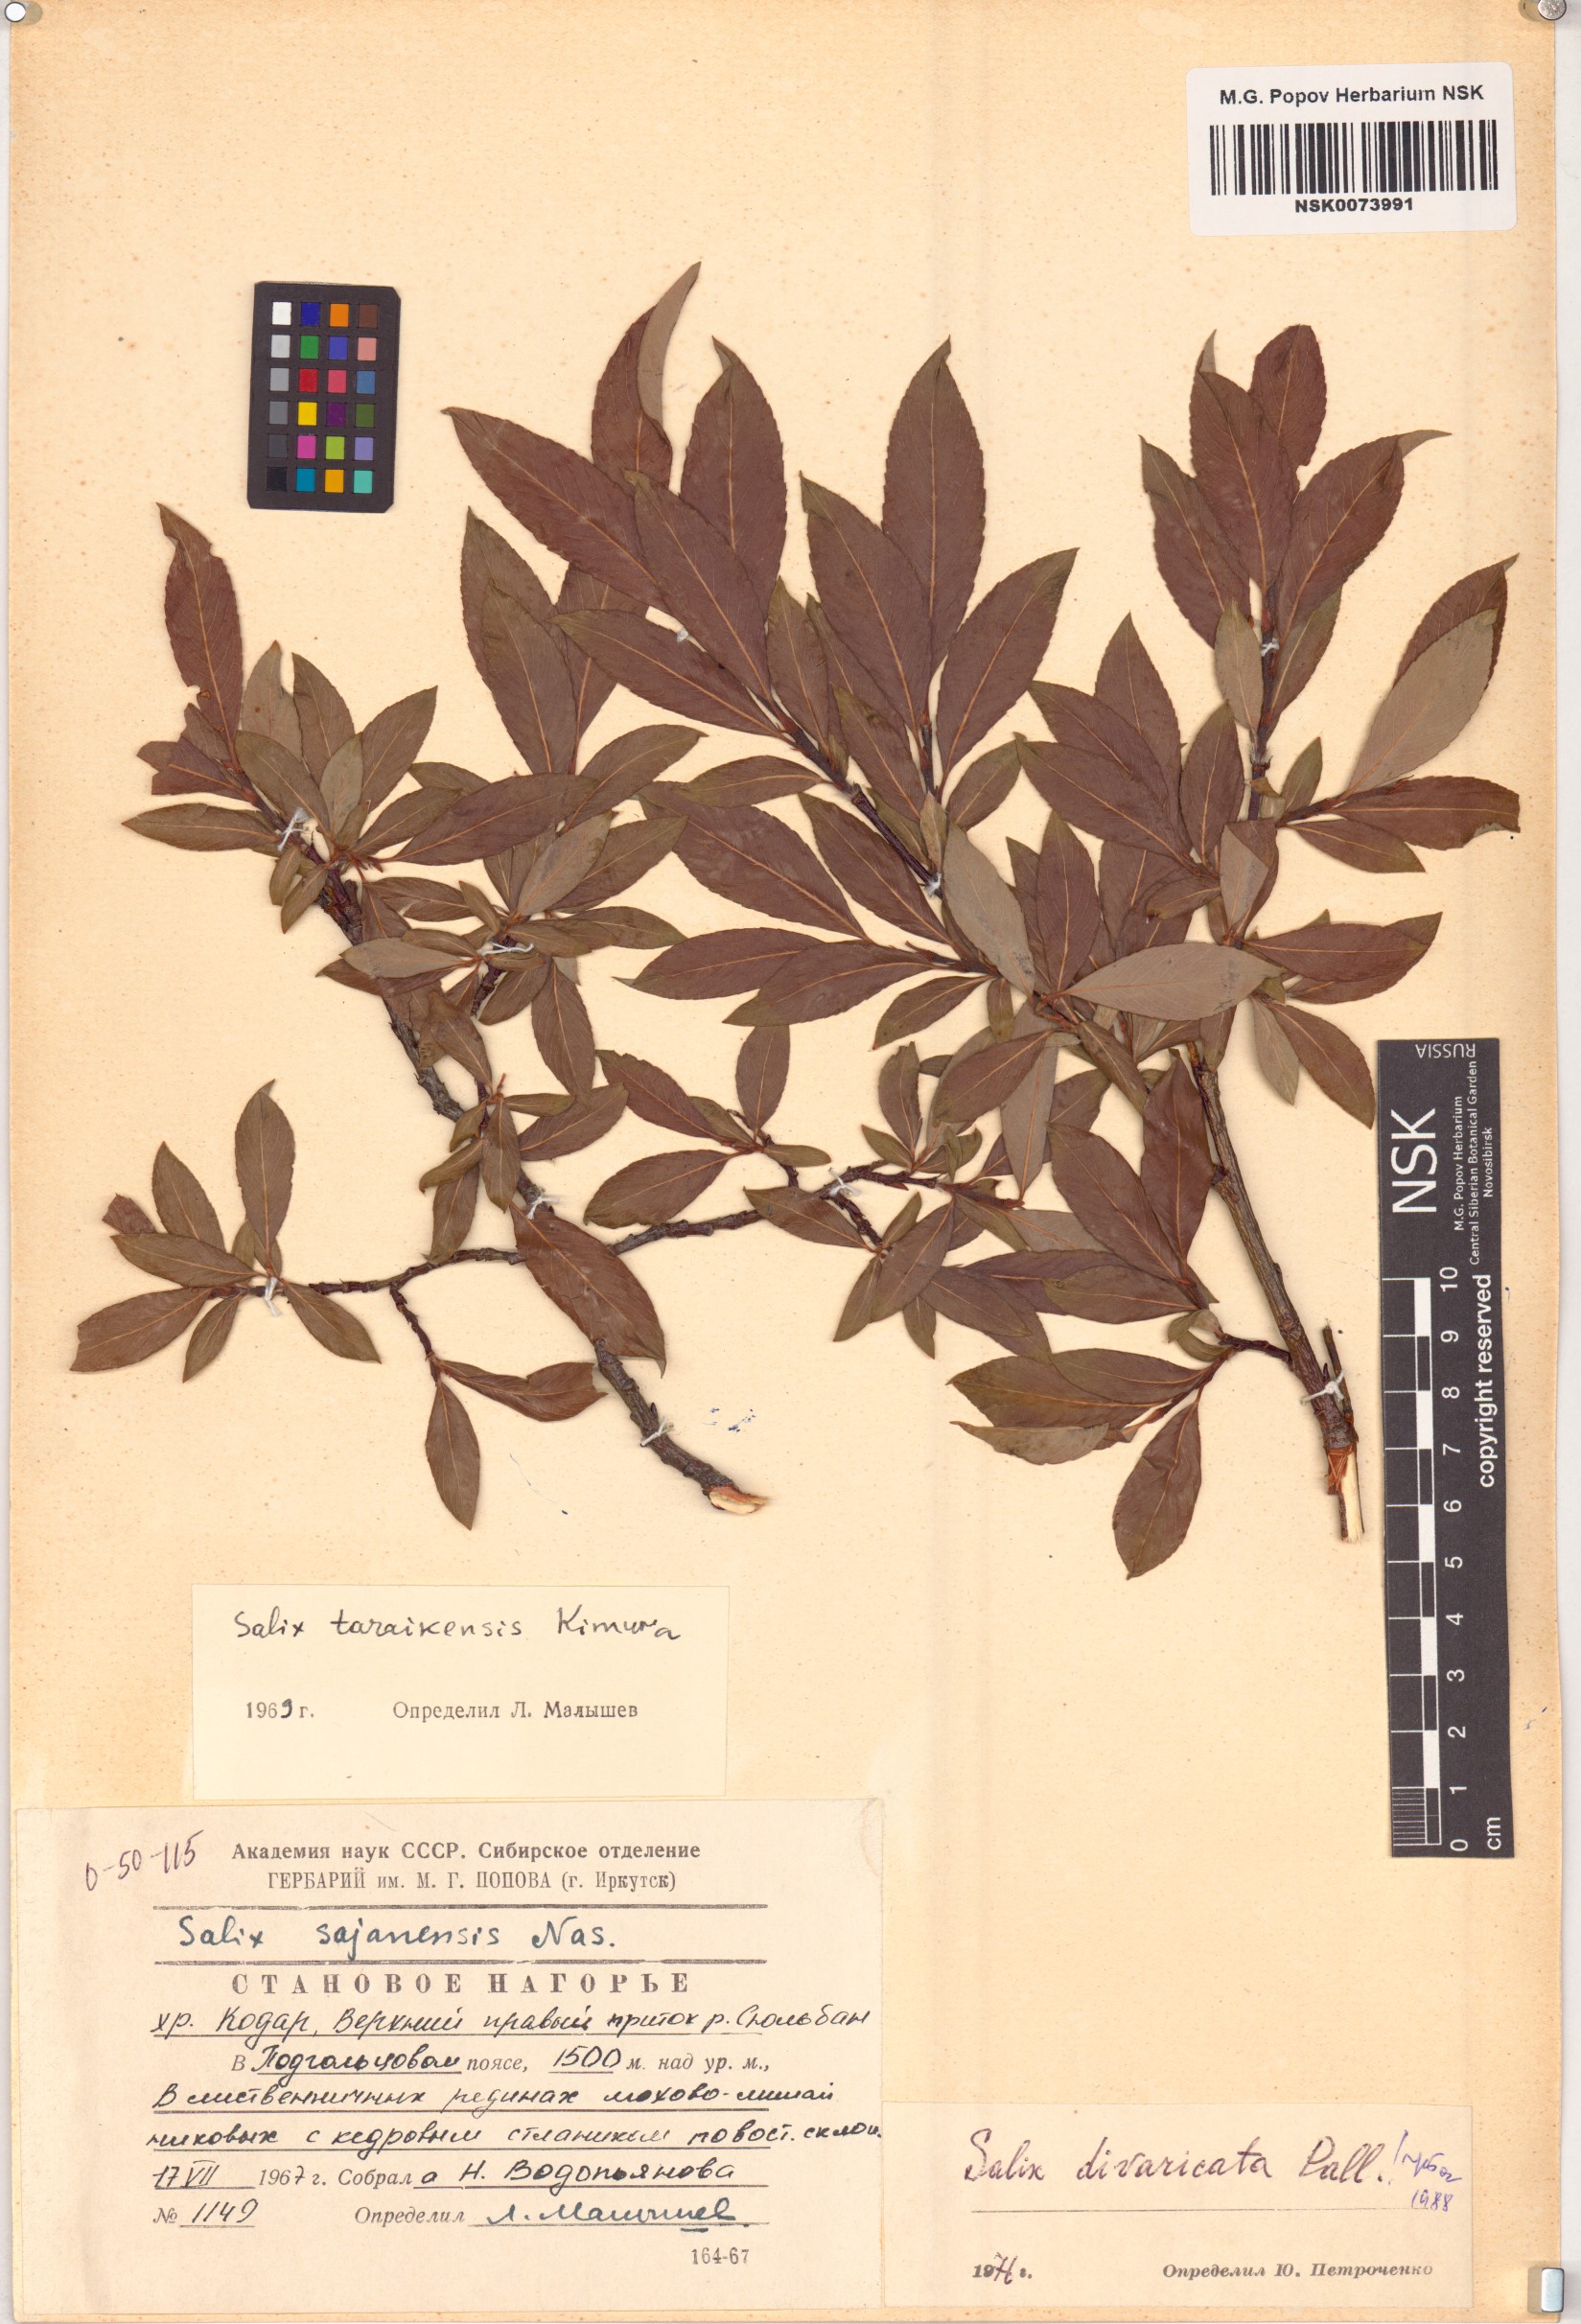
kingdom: Plantae
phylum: Tracheophyta
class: Magnoliopsida
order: Malpighiales
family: Salicaceae
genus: Salix
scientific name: Salix divaricata
